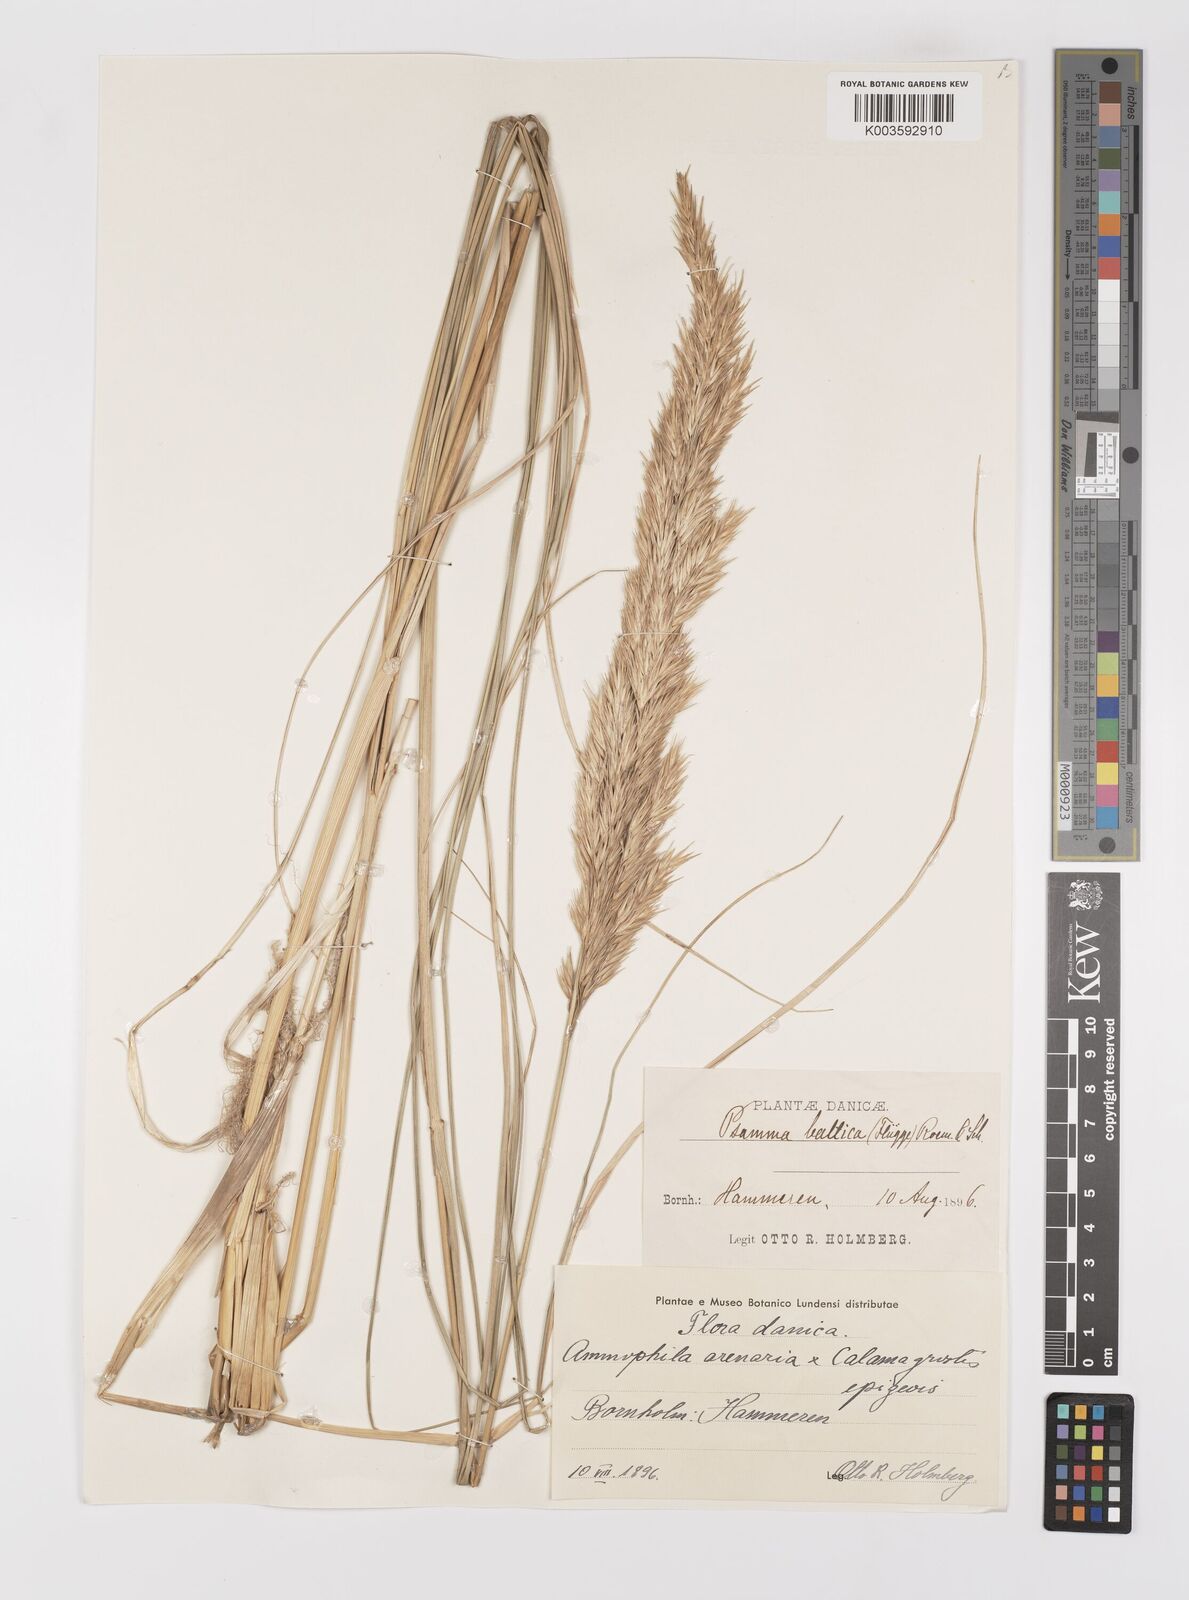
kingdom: Plantae
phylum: Tracheophyta
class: Liliopsida
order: Poales
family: Poaceae
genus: Calamagrostis
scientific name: Calamagrostis arenaria
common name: European beachgrass
